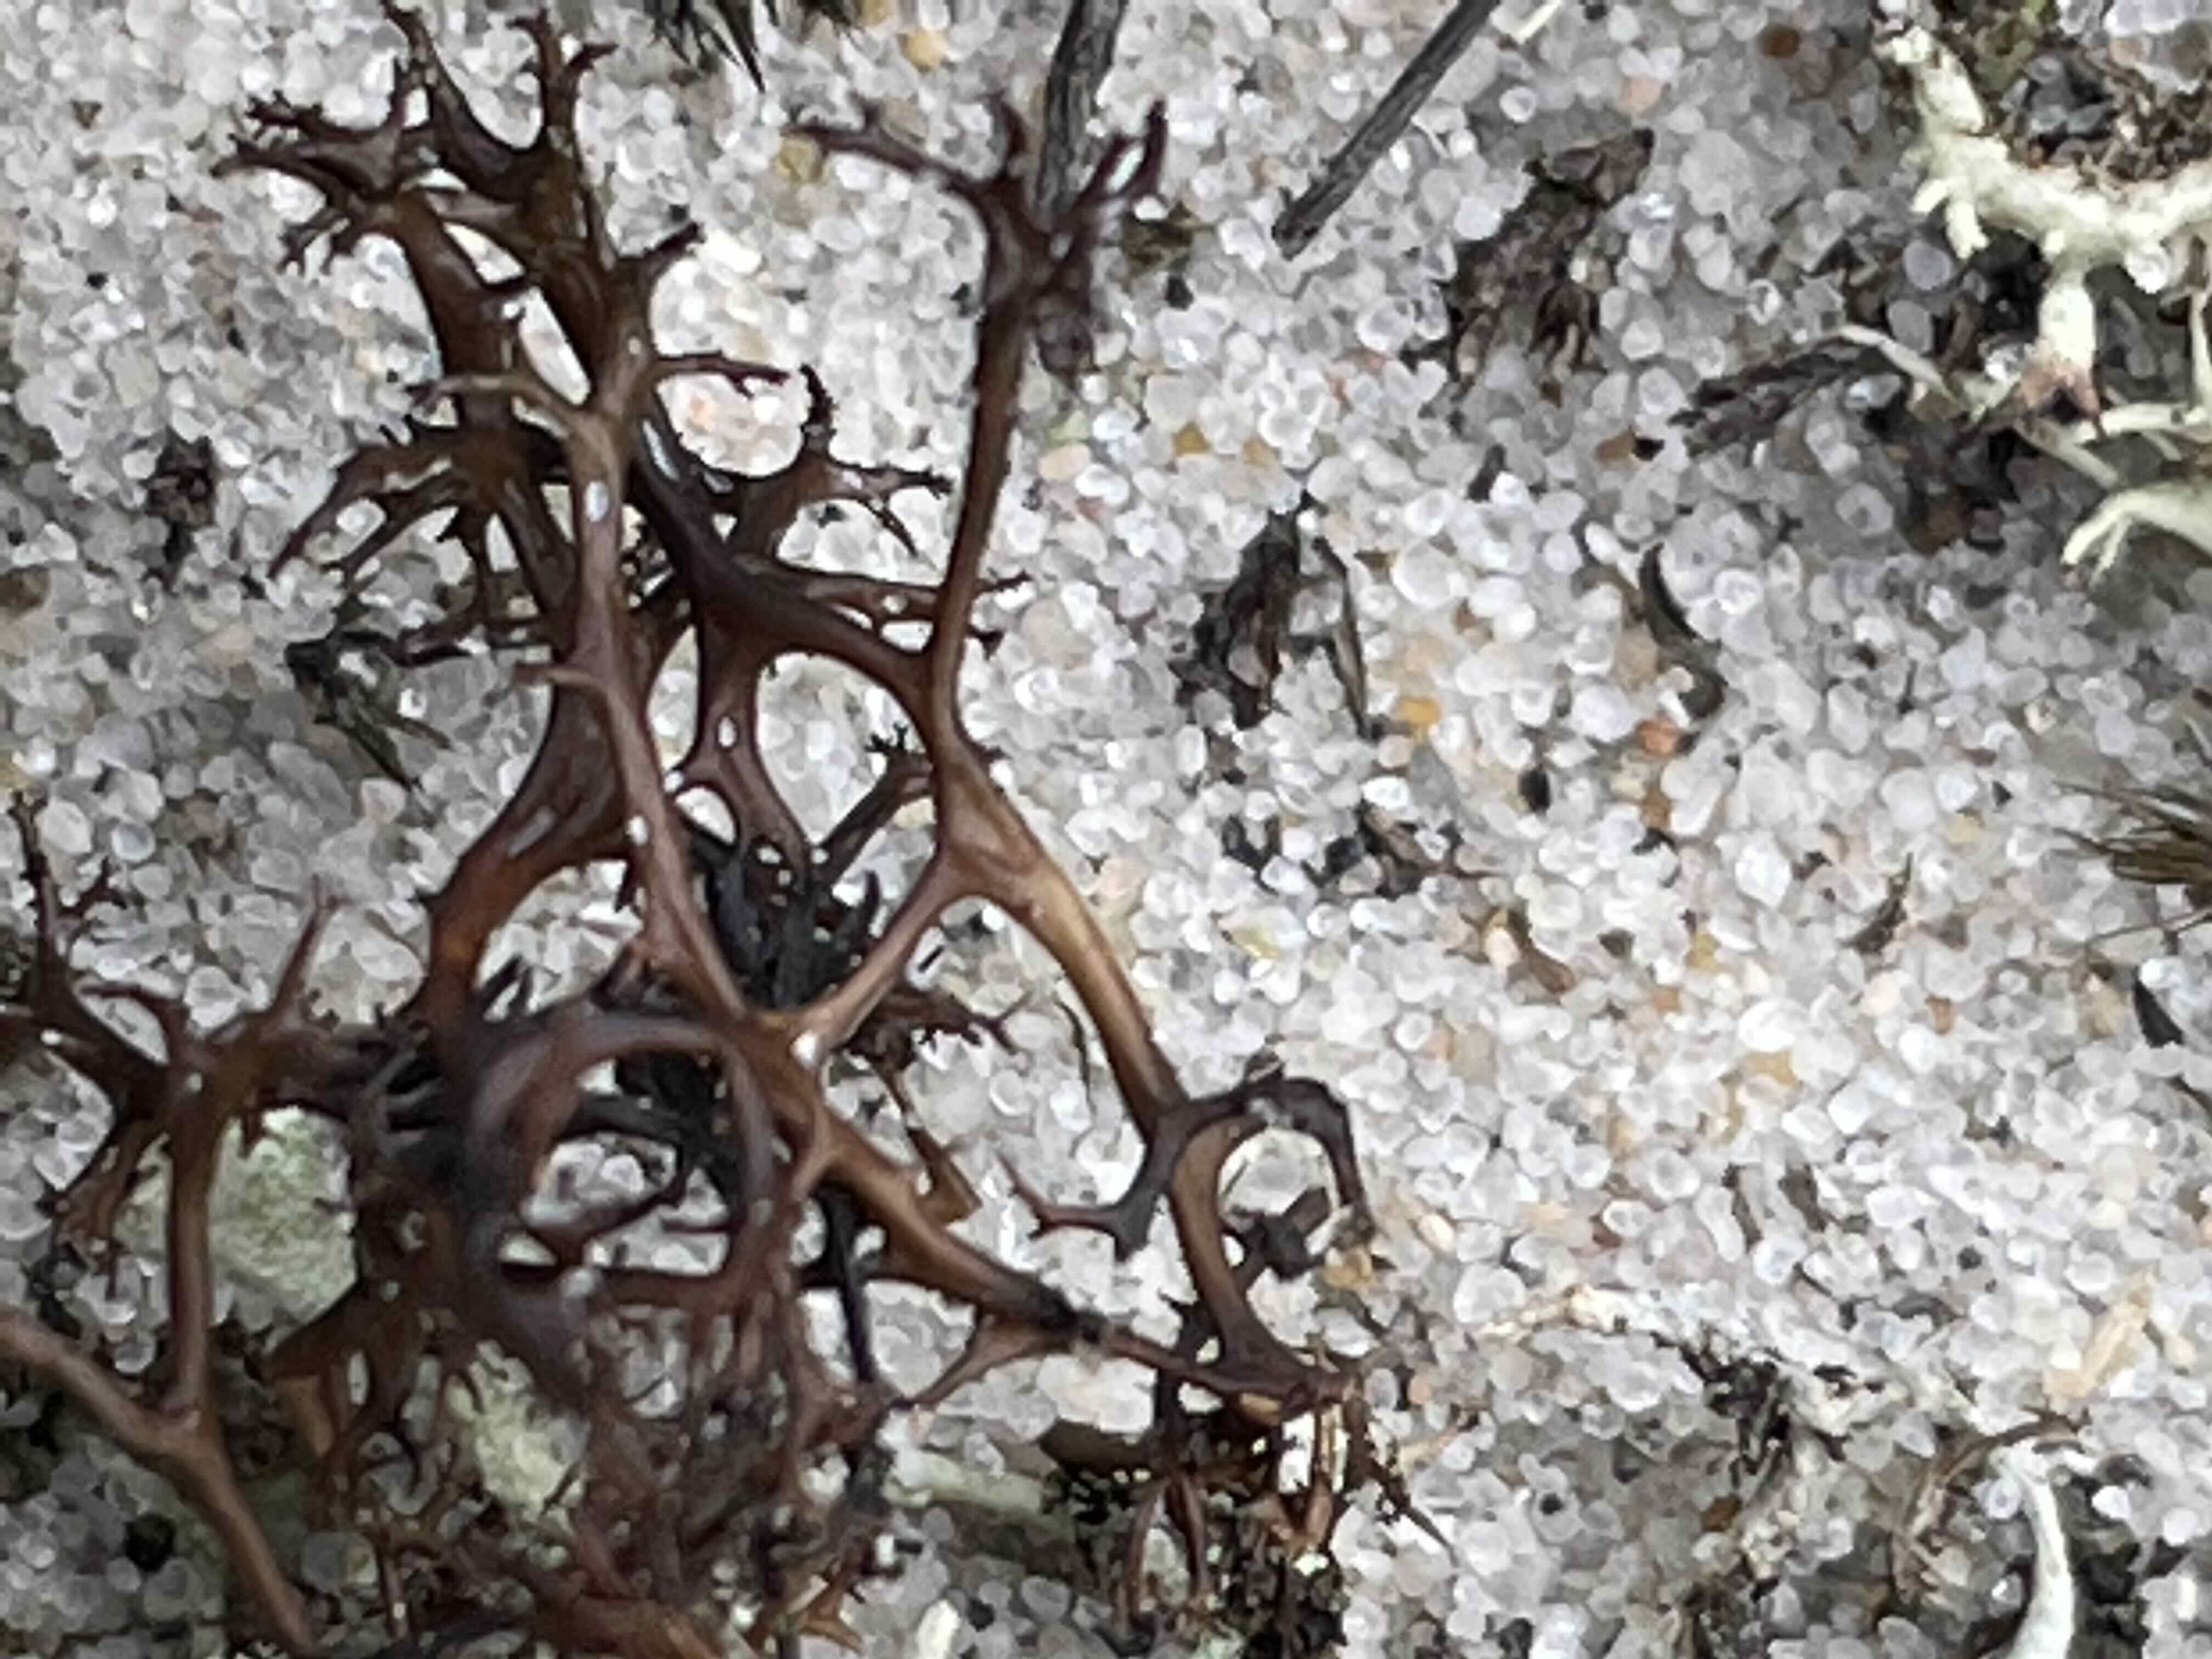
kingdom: Fungi
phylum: Ascomycota
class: Lecanoromycetes
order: Lecanorales
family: Parmeliaceae
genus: Cetraria
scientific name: Cetraria aculeata
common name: grubet tjørnelav
